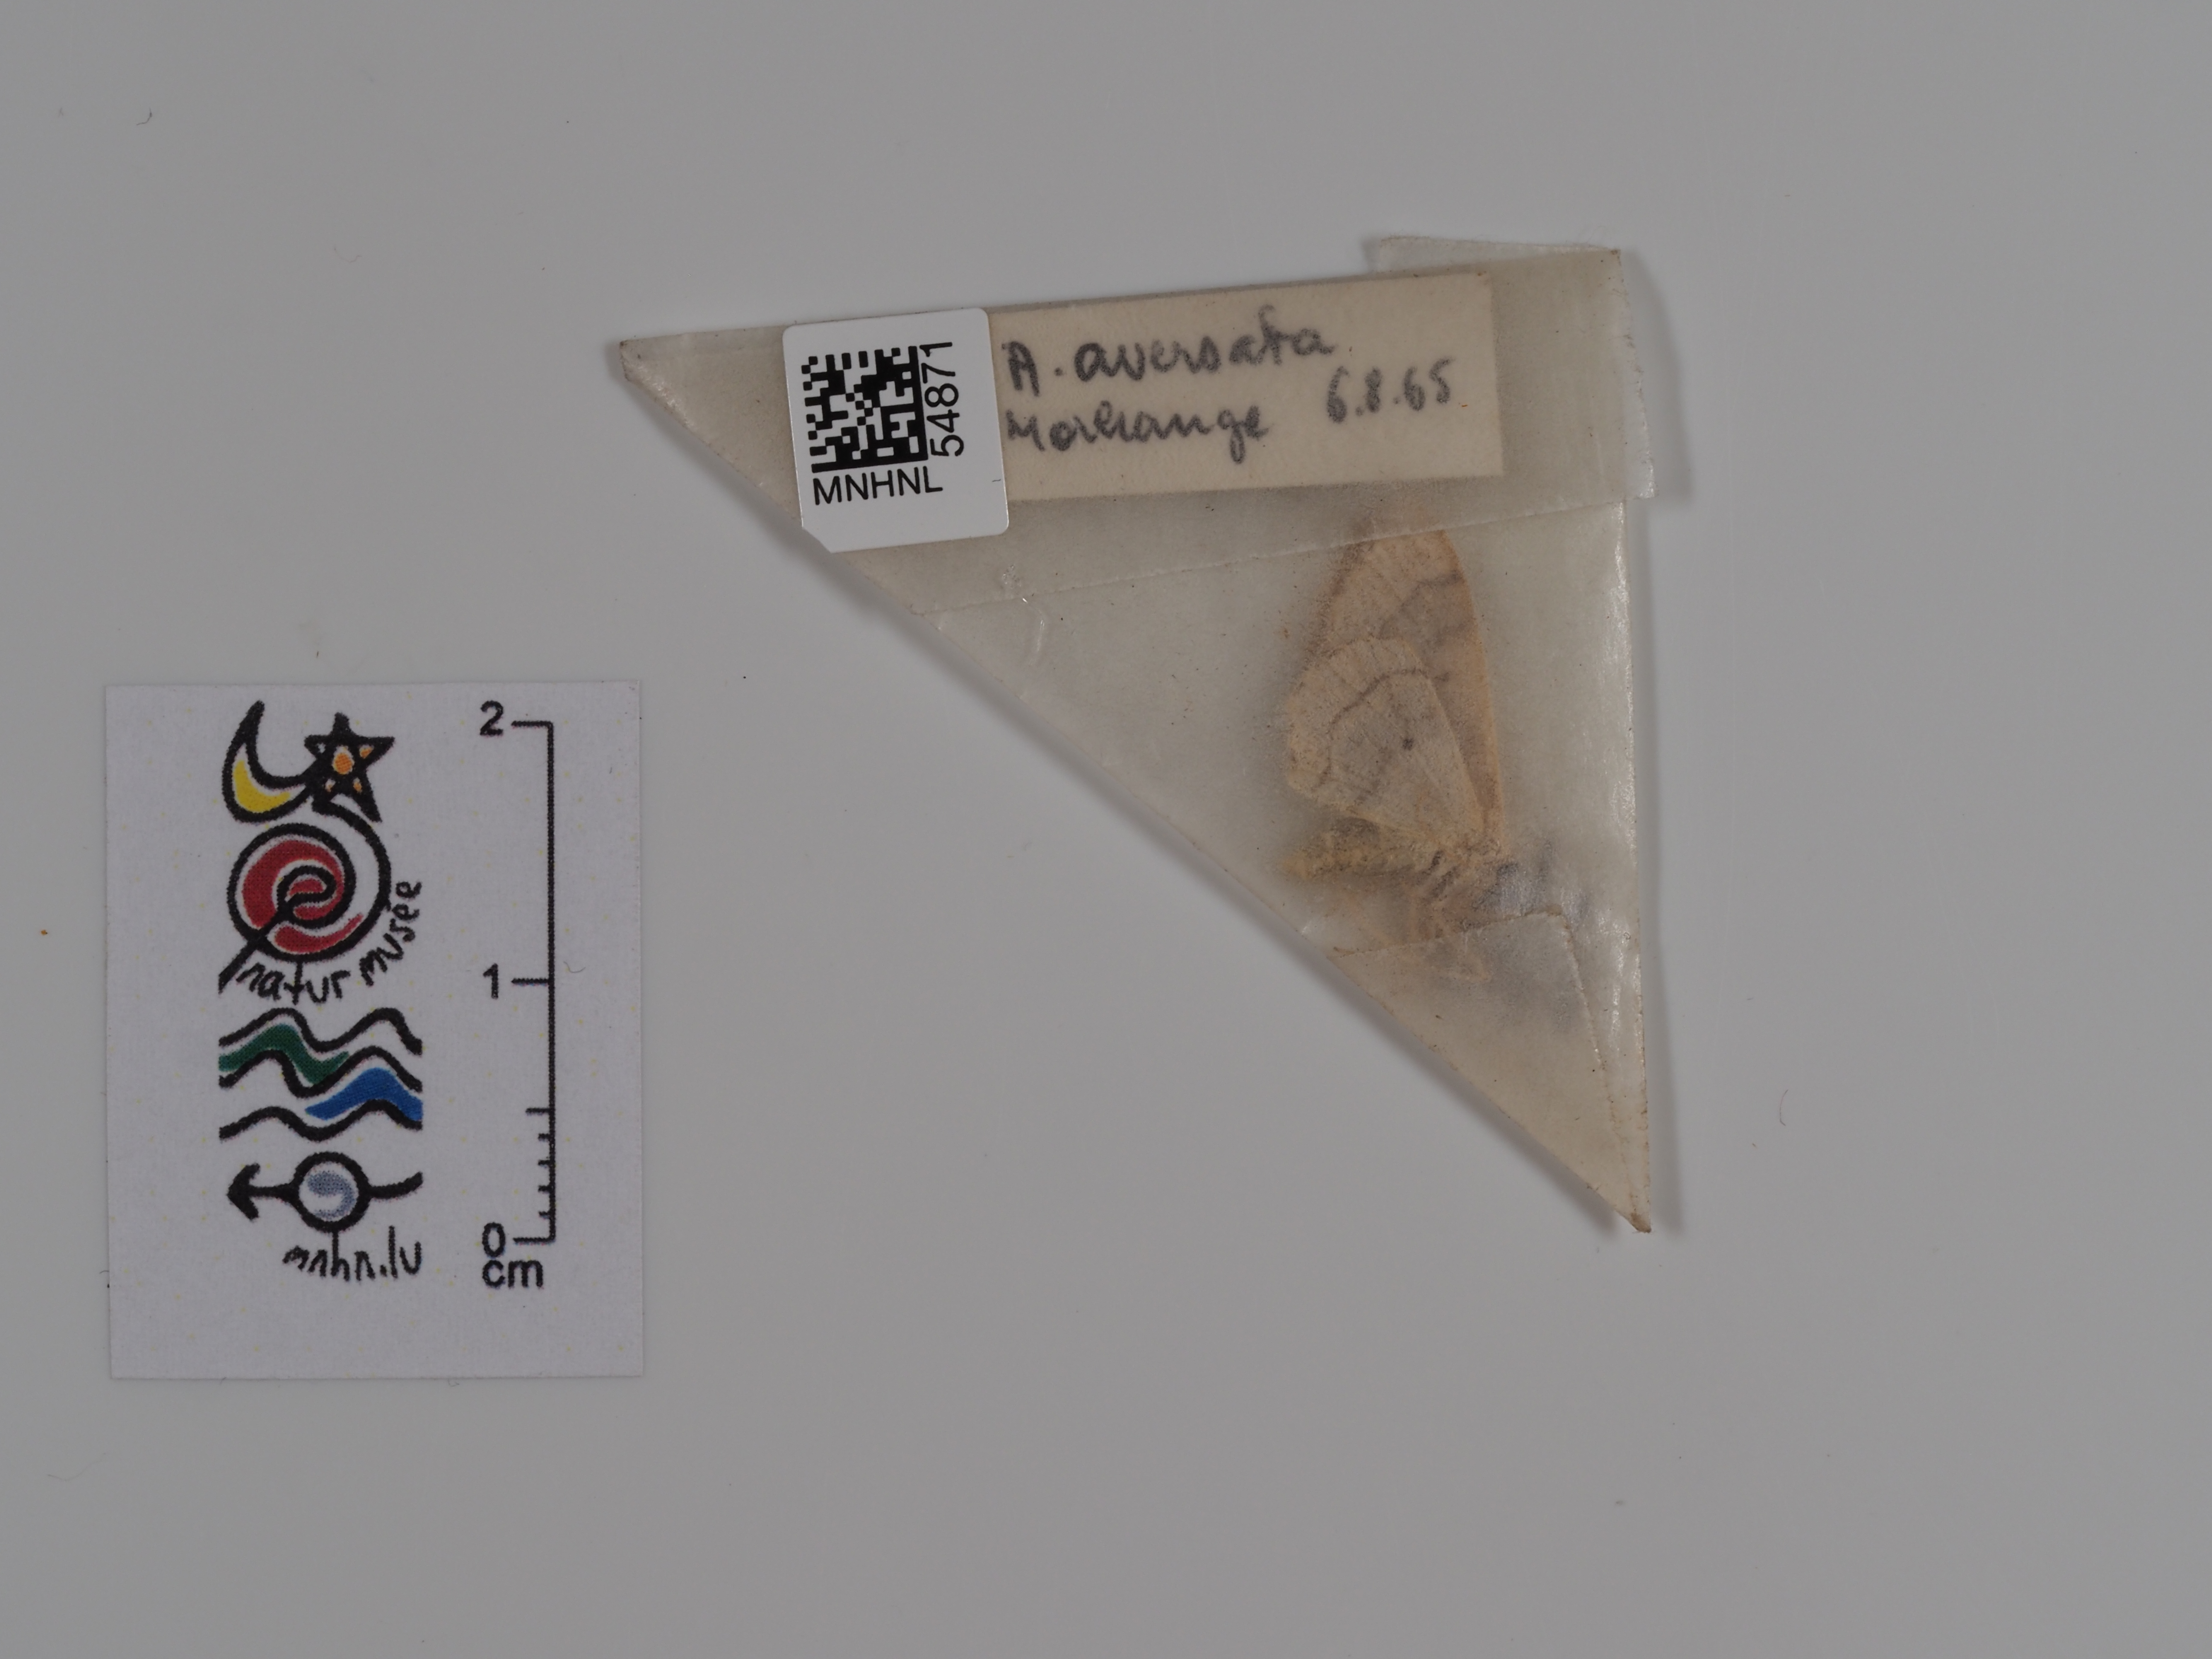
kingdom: Animalia
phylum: Arthropoda
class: Insecta
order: Lepidoptera
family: Geometridae
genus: Idaea
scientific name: Idaea aversata
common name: Riband wave
